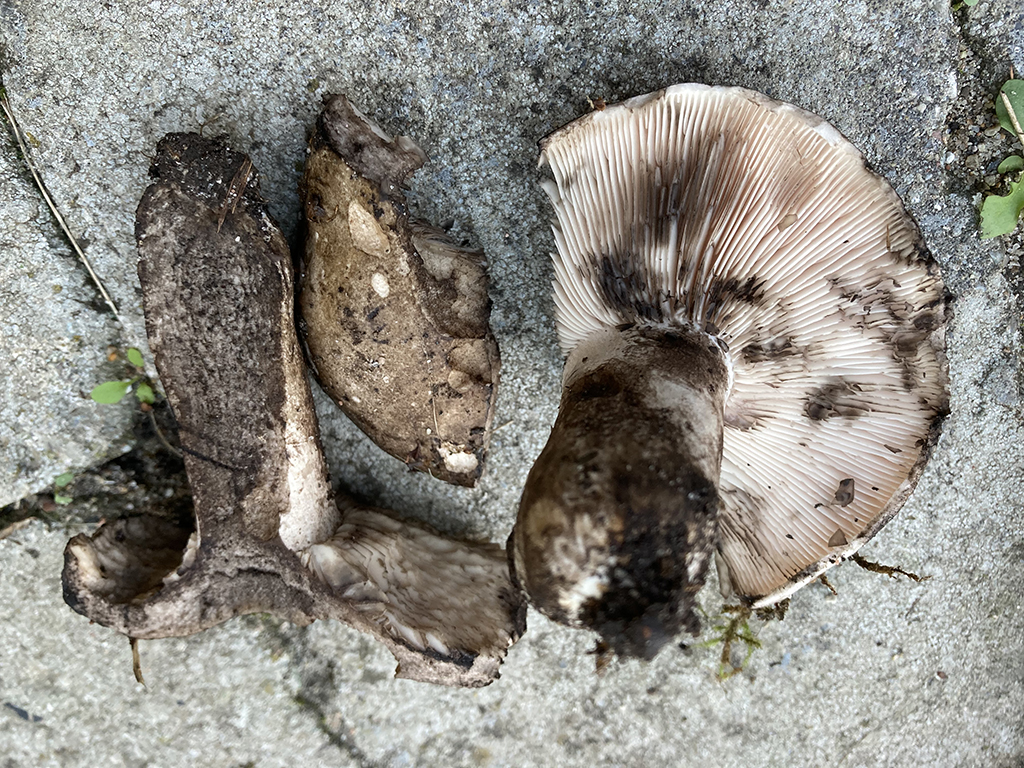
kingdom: Fungi
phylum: Basidiomycota
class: Agaricomycetes
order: Russulales
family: Russulaceae
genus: Russula
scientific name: Russula atramentosa
